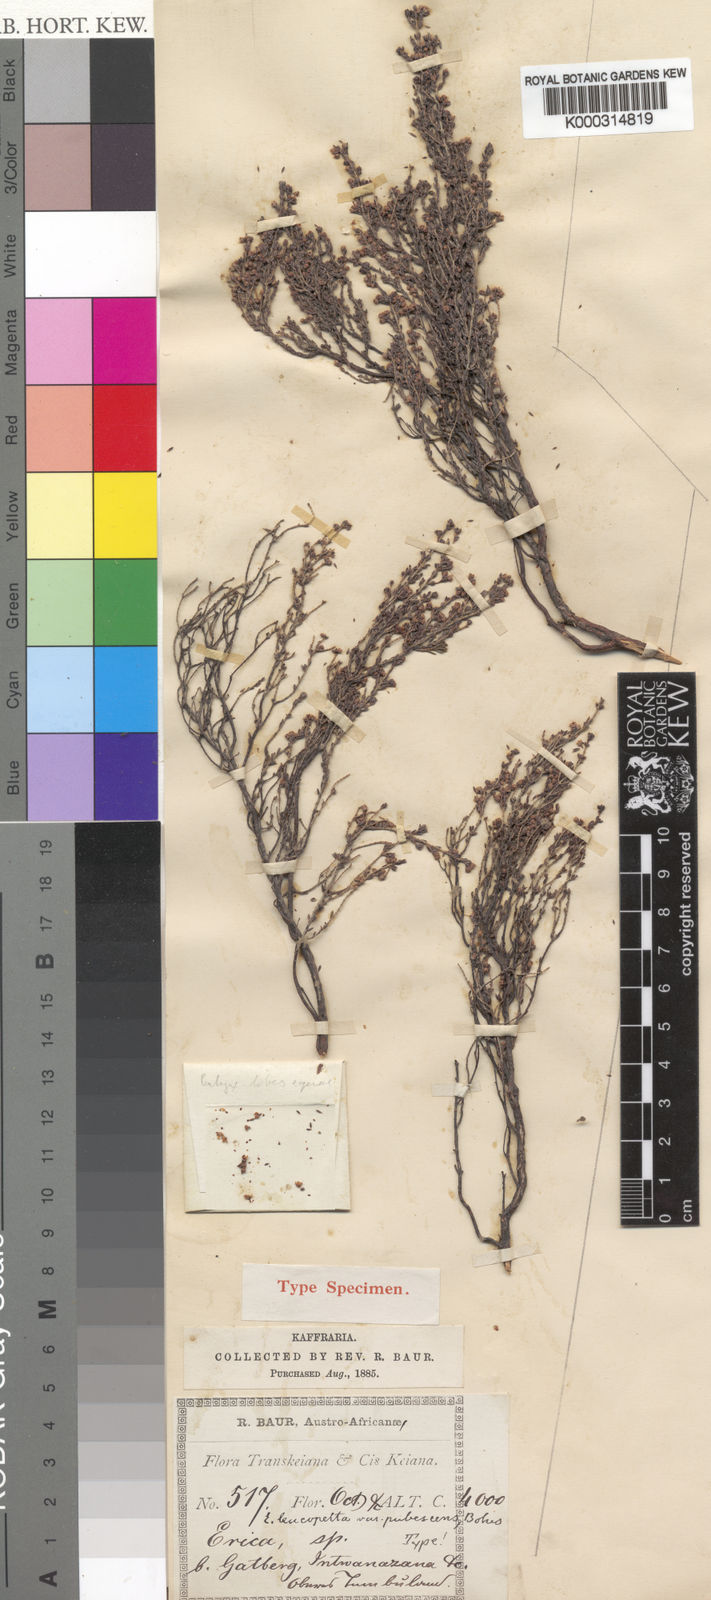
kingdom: Plantae
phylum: Tracheophyta
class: Magnoliopsida
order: Ericales
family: Ericaceae
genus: Erica
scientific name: Erica leucopelta
